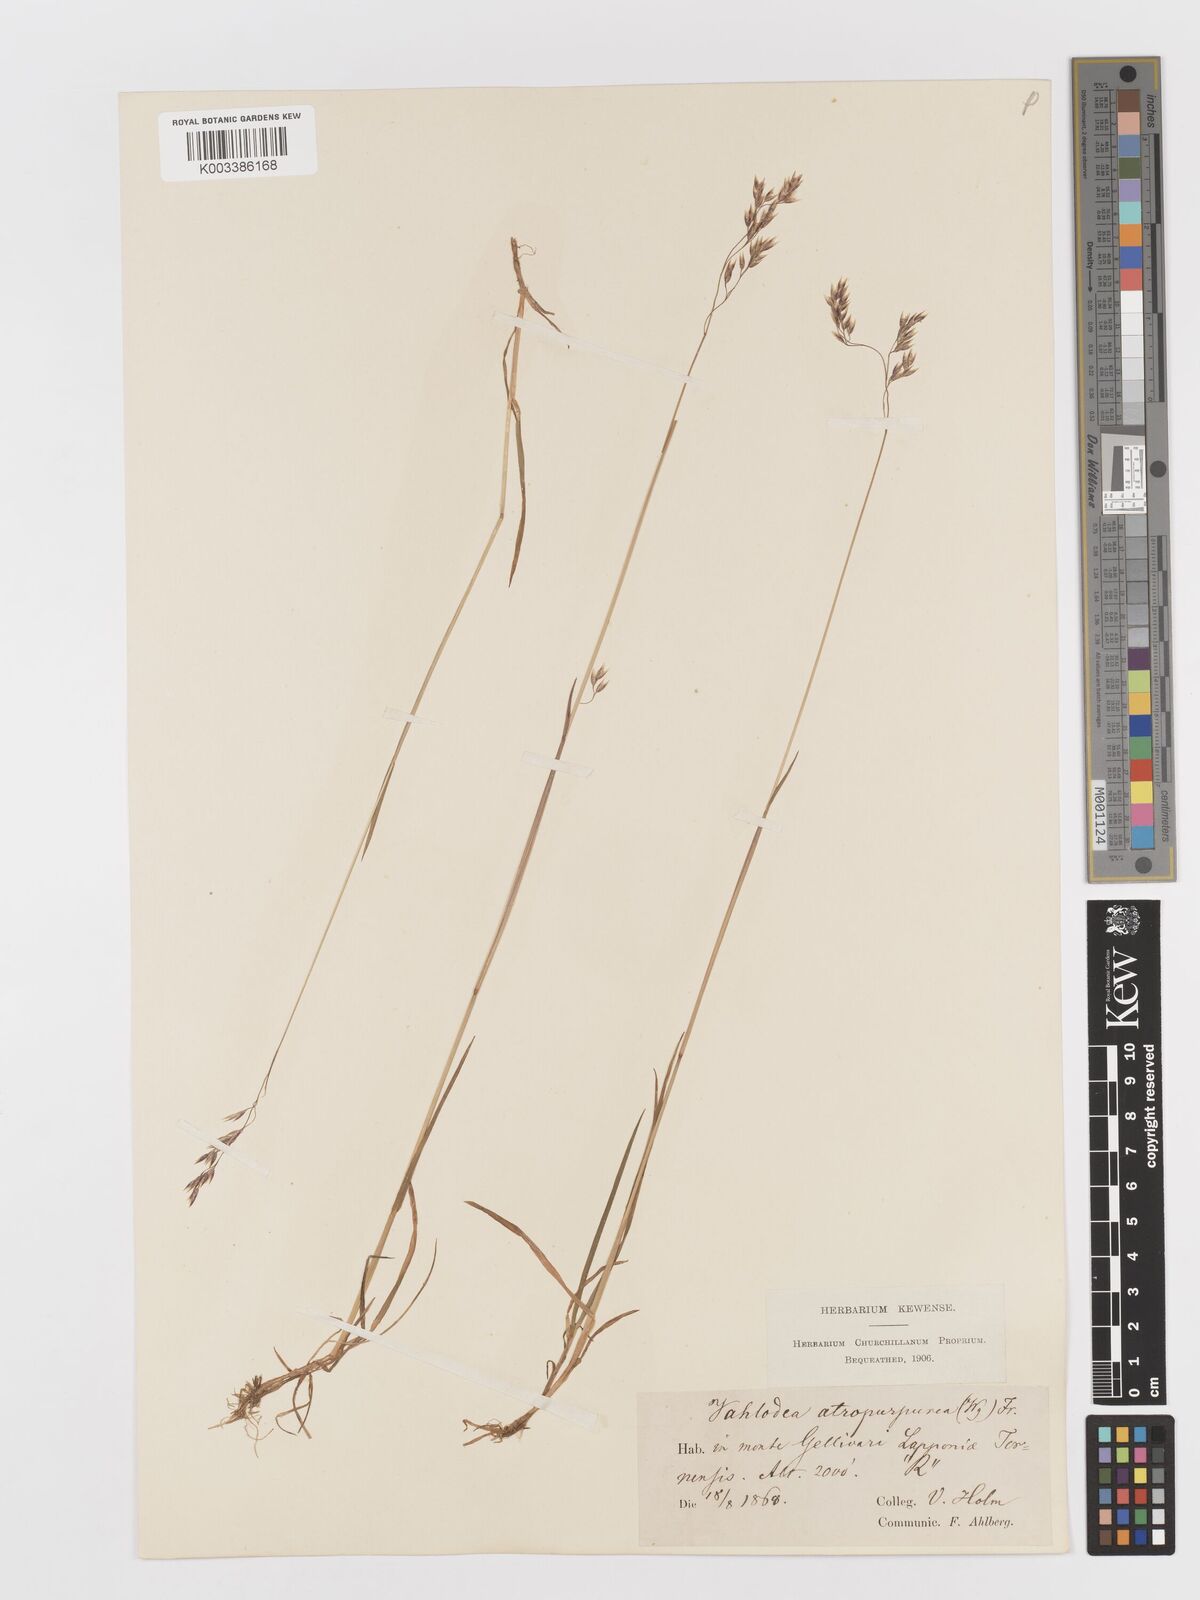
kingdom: Plantae
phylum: Tracheophyta
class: Liliopsida
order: Poales
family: Poaceae
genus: Vahlodea
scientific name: Vahlodea atropurpurea
